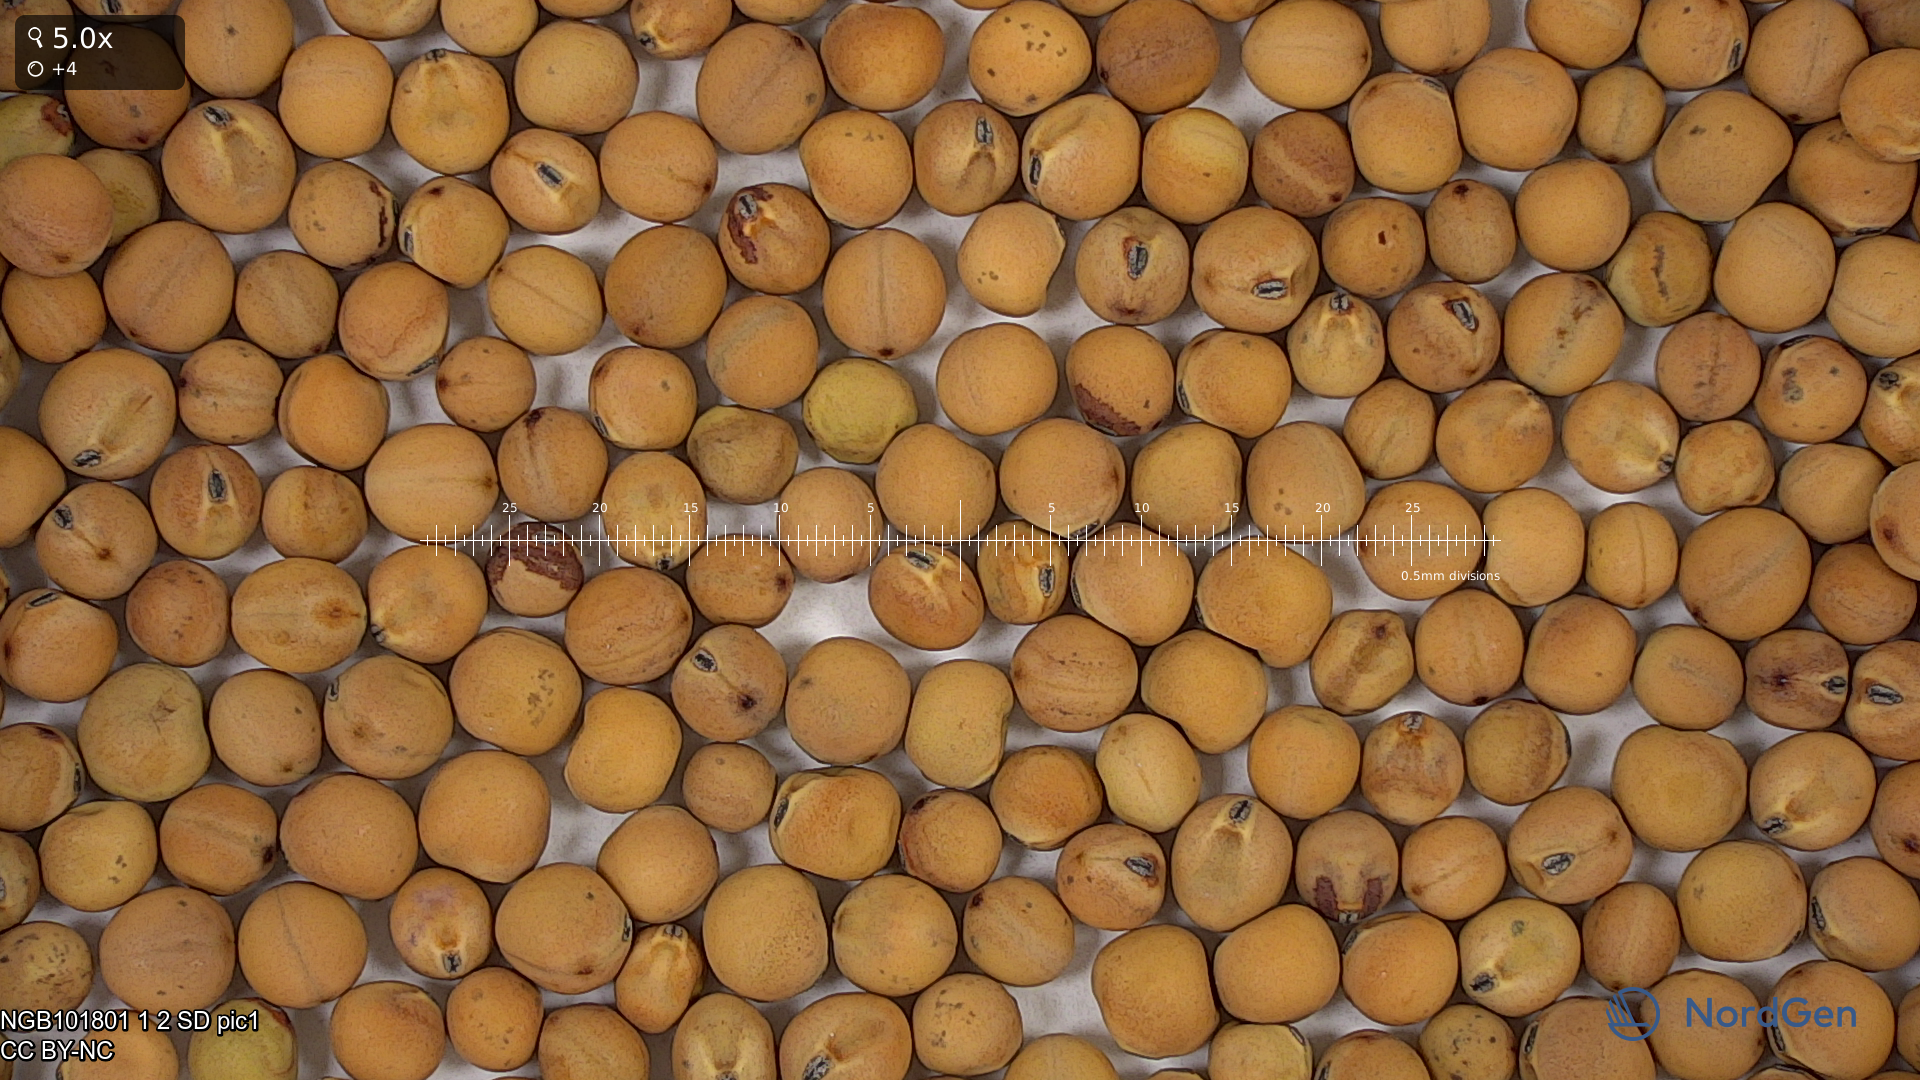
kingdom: Plantae
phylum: Tracheophyta
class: Magnoliopsida
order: Fabales
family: Fabaceae
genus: Lathyrus
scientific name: Lathyrus oleraceus
